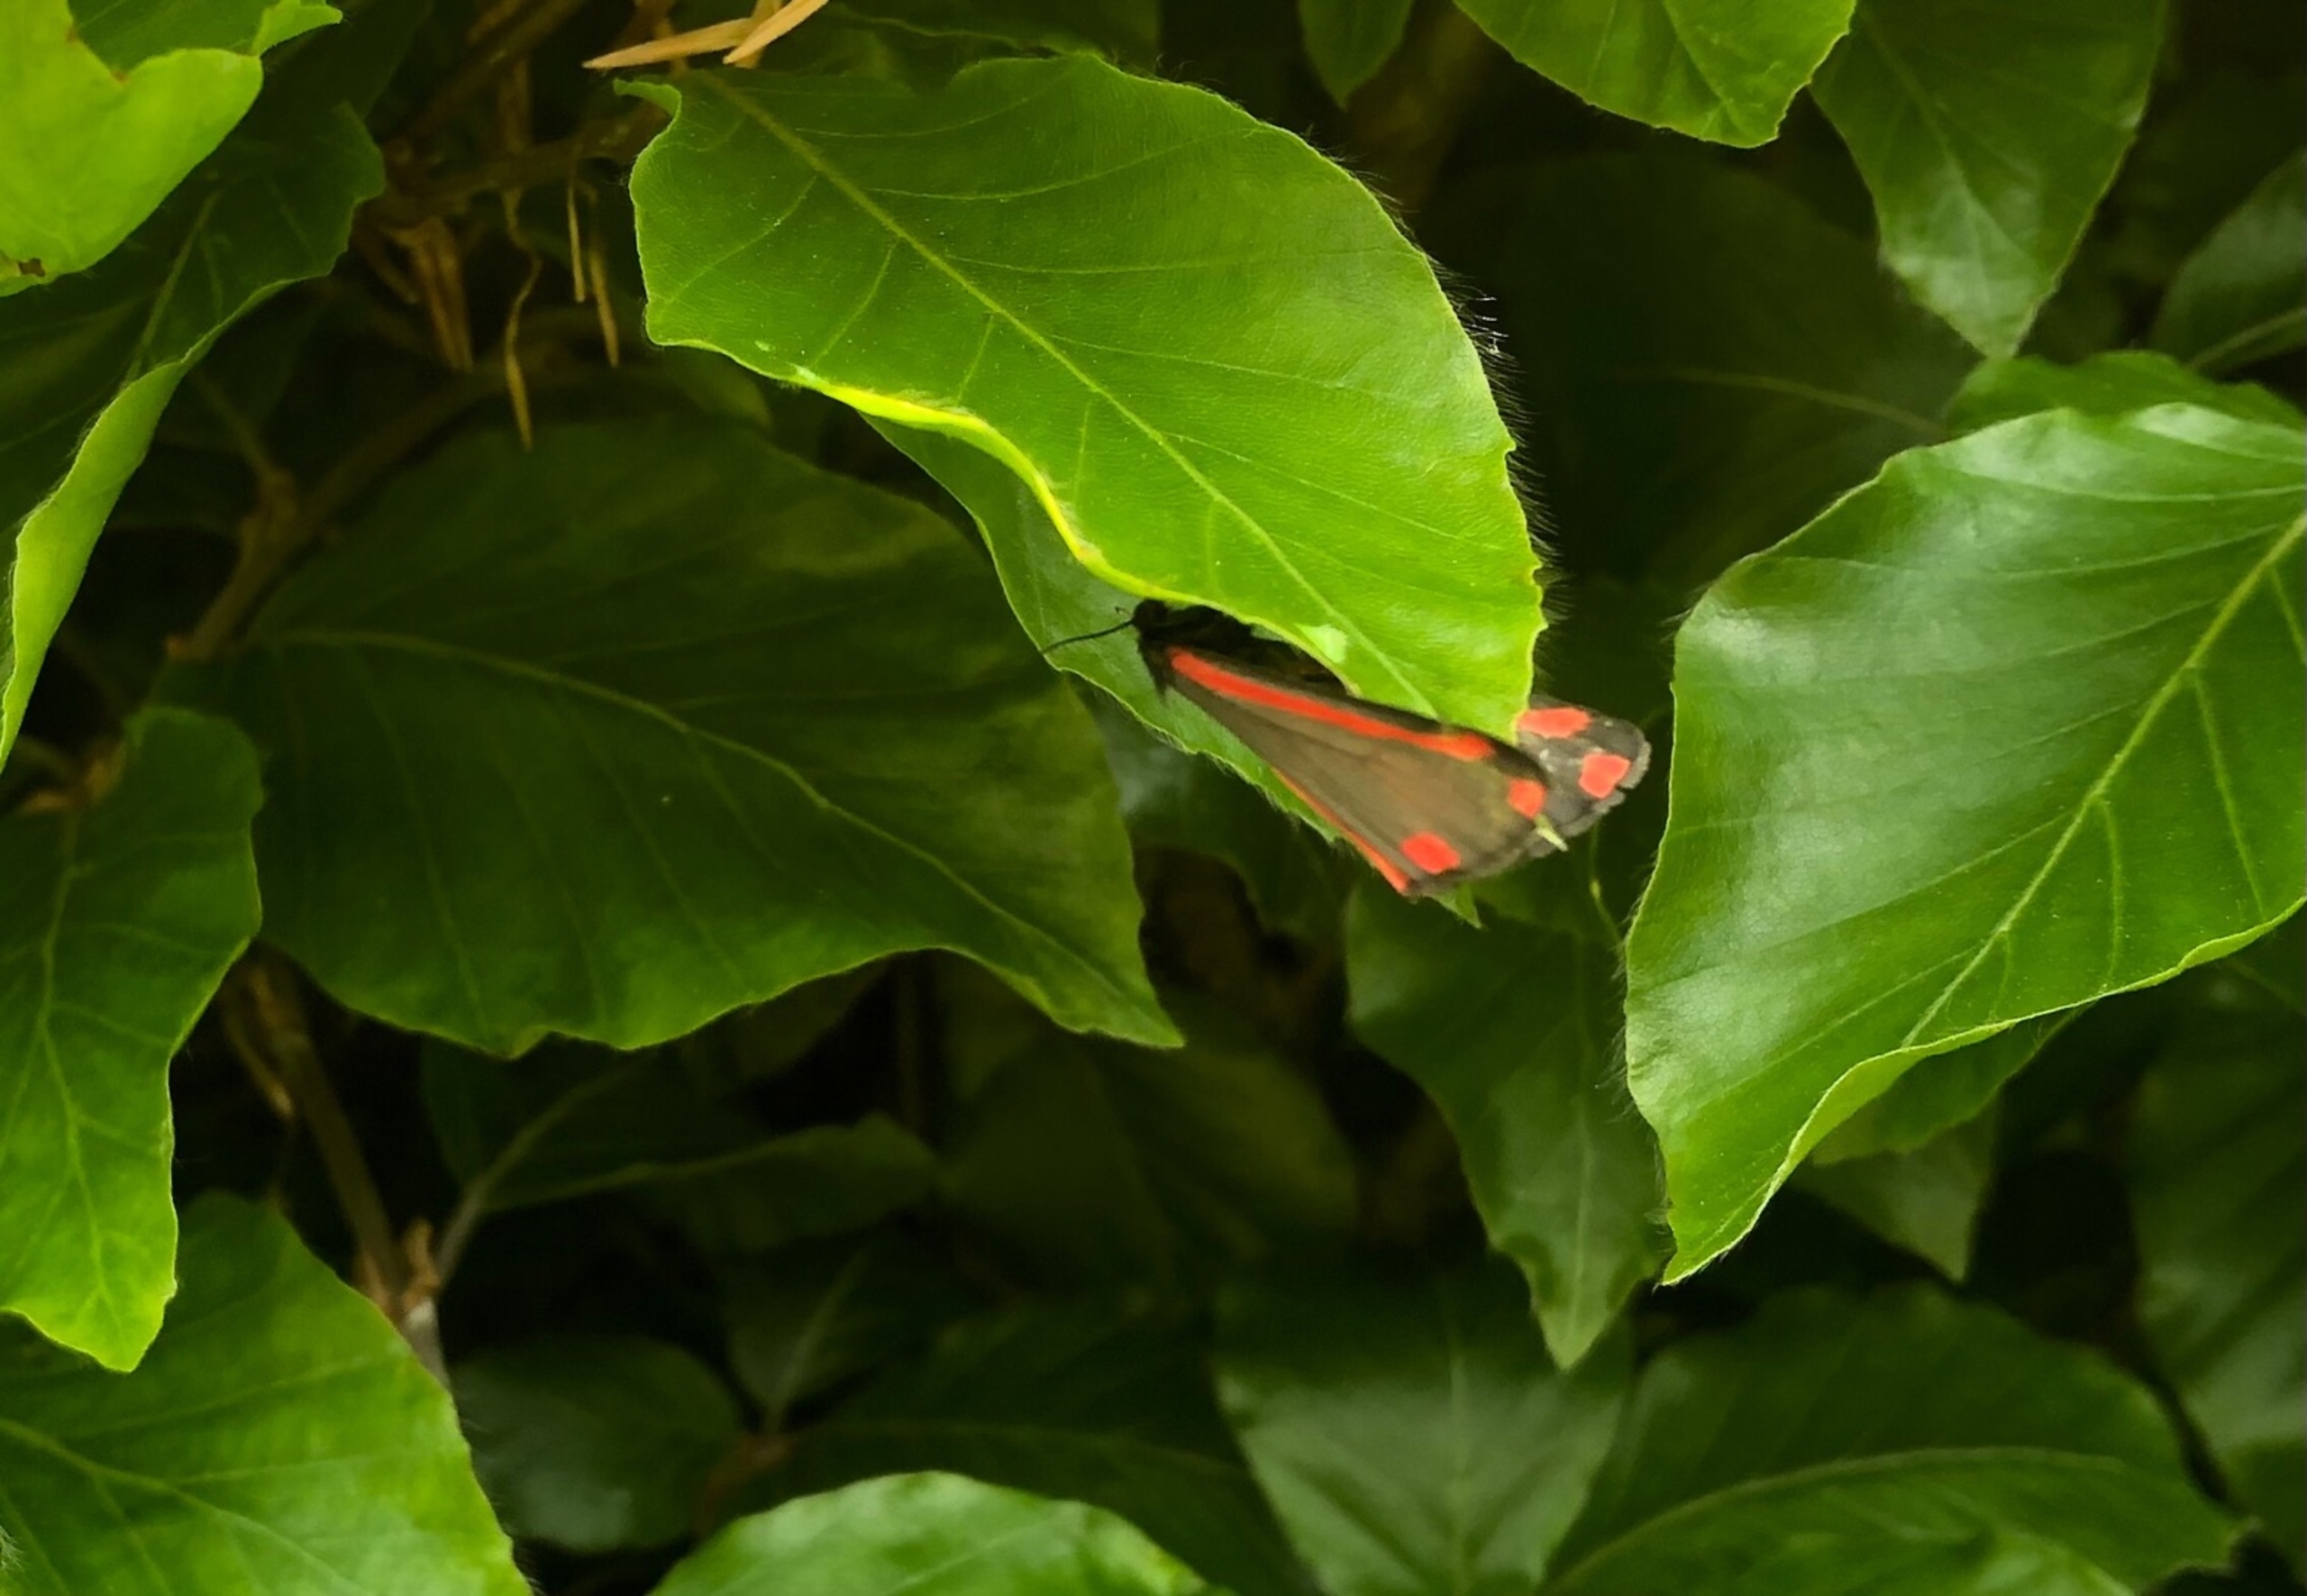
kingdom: Animalia
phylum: Arthropoda
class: Insecta
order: Lepidoptera
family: Erebidae
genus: Tyria
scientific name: Tyria jacobaeae
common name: Blodplet
